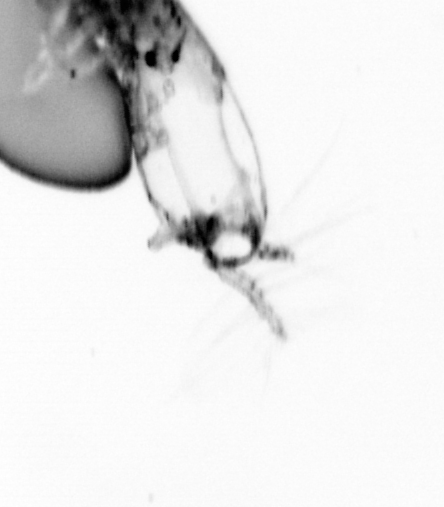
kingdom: Animalia
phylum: Arthropoda
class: Copepoda
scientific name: Copepoda
